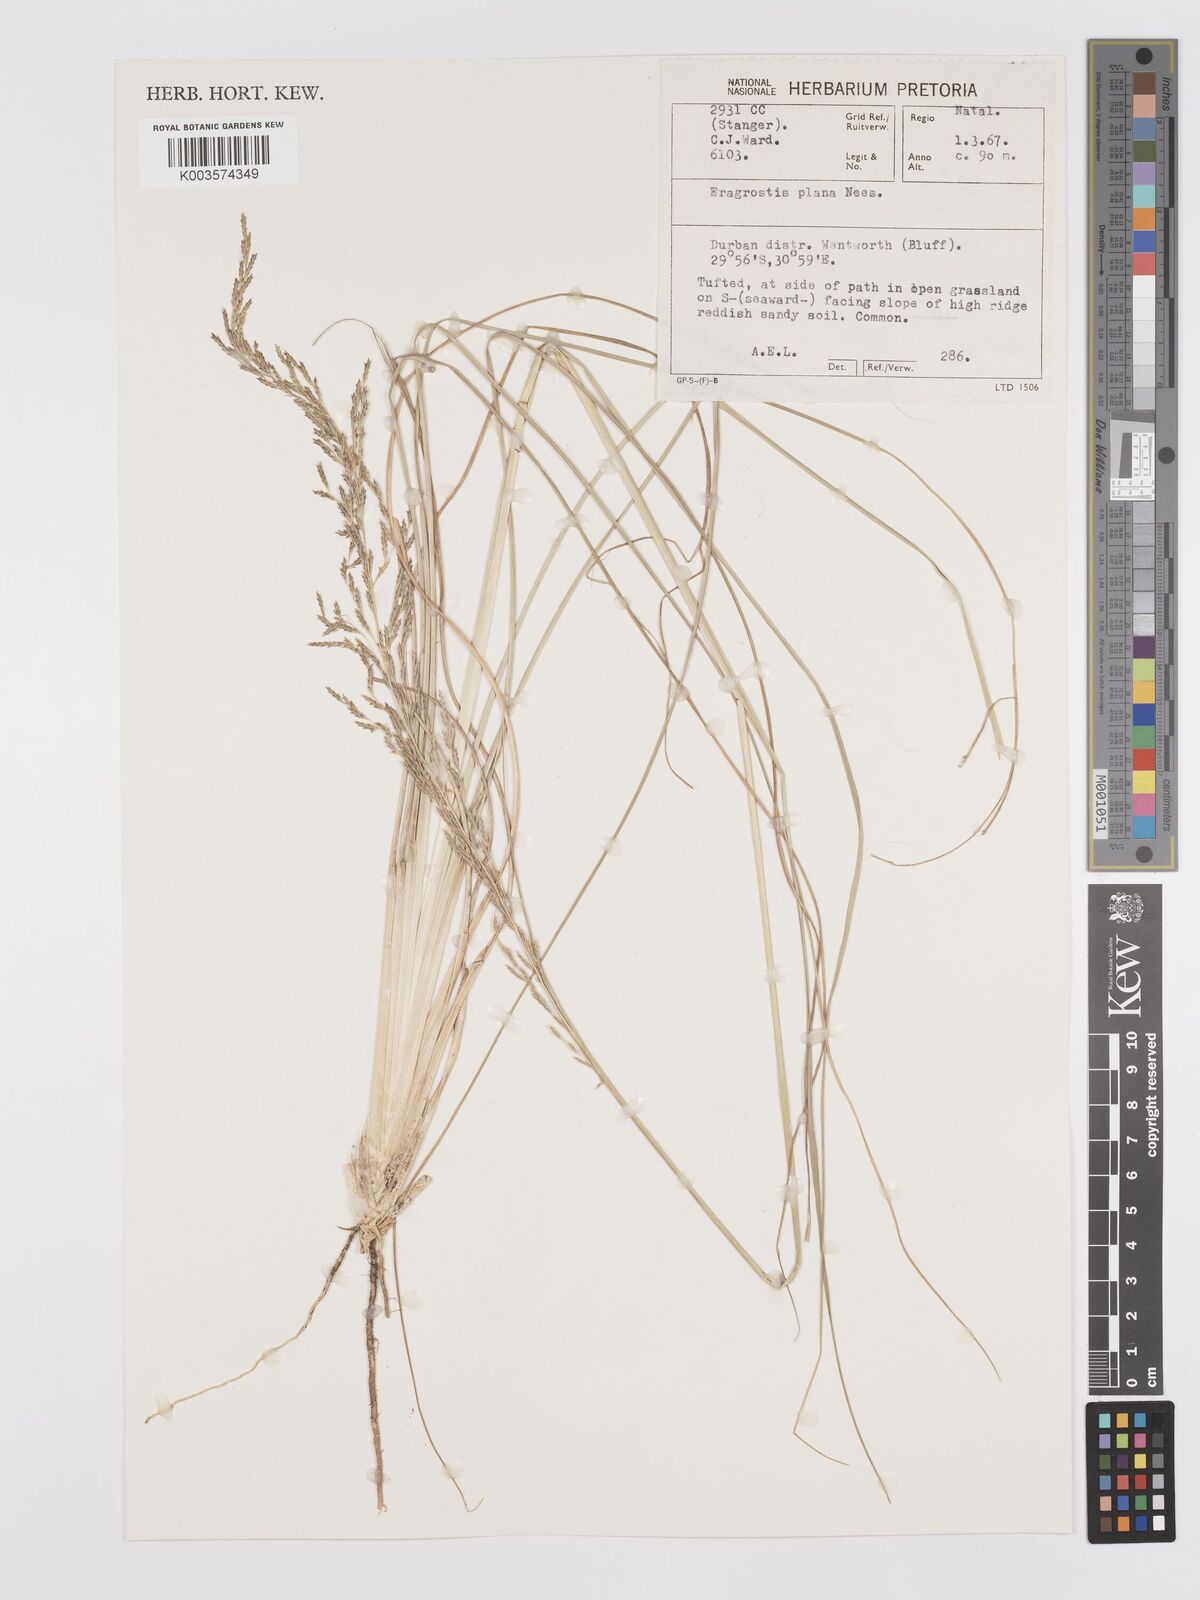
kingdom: Plantae
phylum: Tracheophyta
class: Liliopsida
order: Poales
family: Poaceae
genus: Eragrostis
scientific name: Eragrostis plana
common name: South african lovegrass
